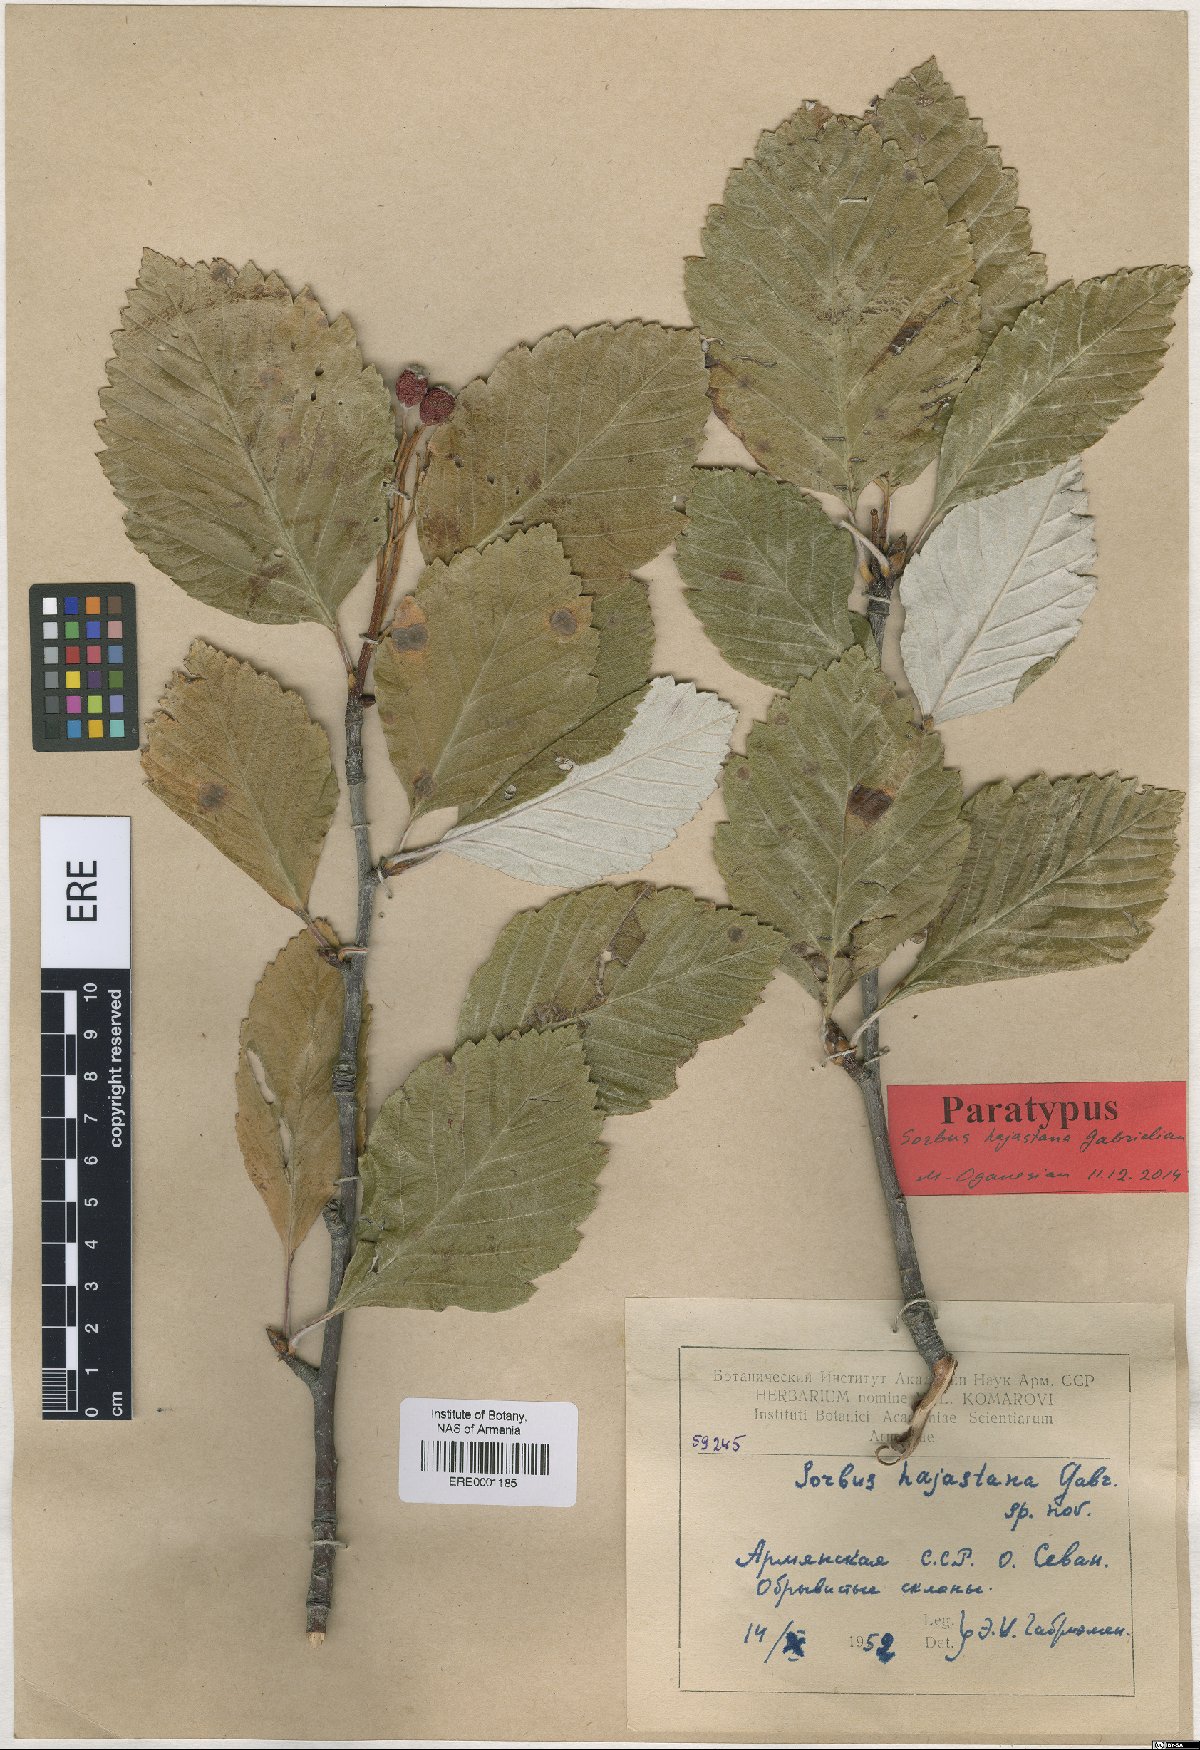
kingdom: Plantae
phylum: Tracheophyta
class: Magnoliopsida
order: Rosales
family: Rosaceae
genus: Sorbus
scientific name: Sorbus hajastana
